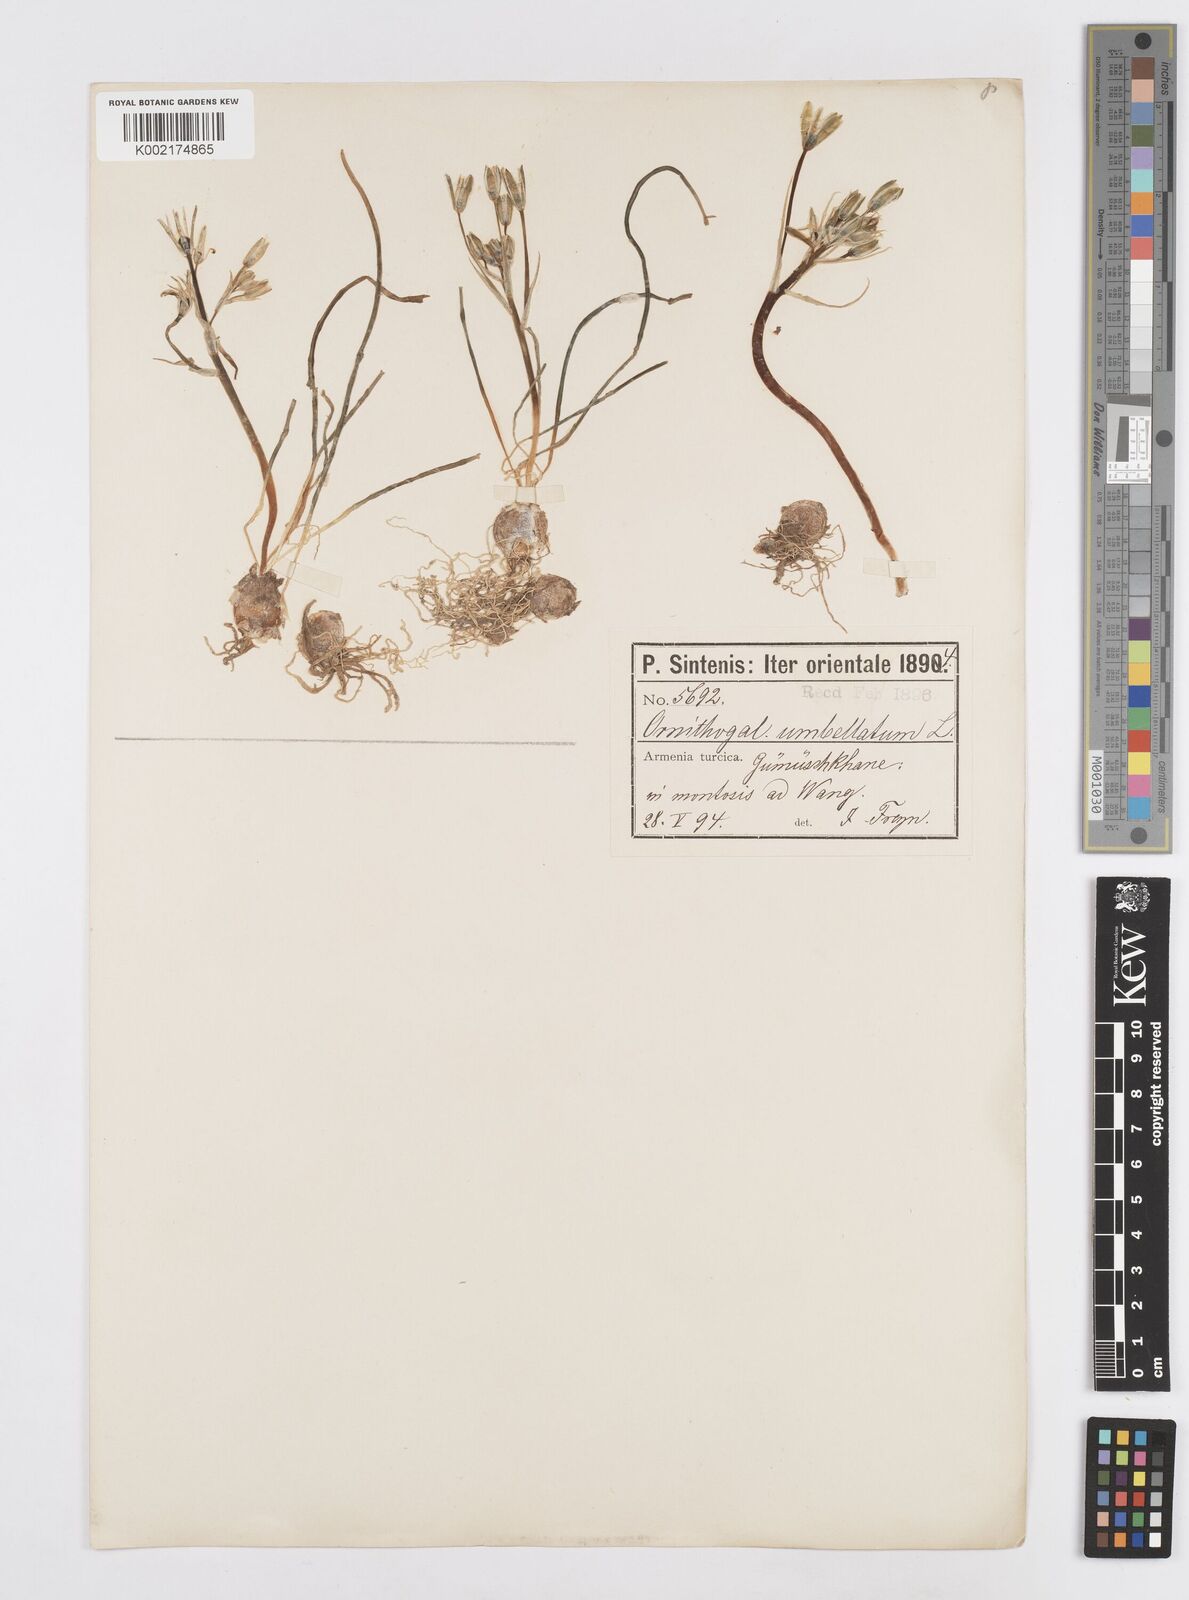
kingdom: Plantae
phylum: Tracheophyta
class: Liliopsida
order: Asparagales
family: Asparagaceae
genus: Ornithogalum
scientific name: Ornithogalum umbellatum
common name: Garden star-of-bethlehem
